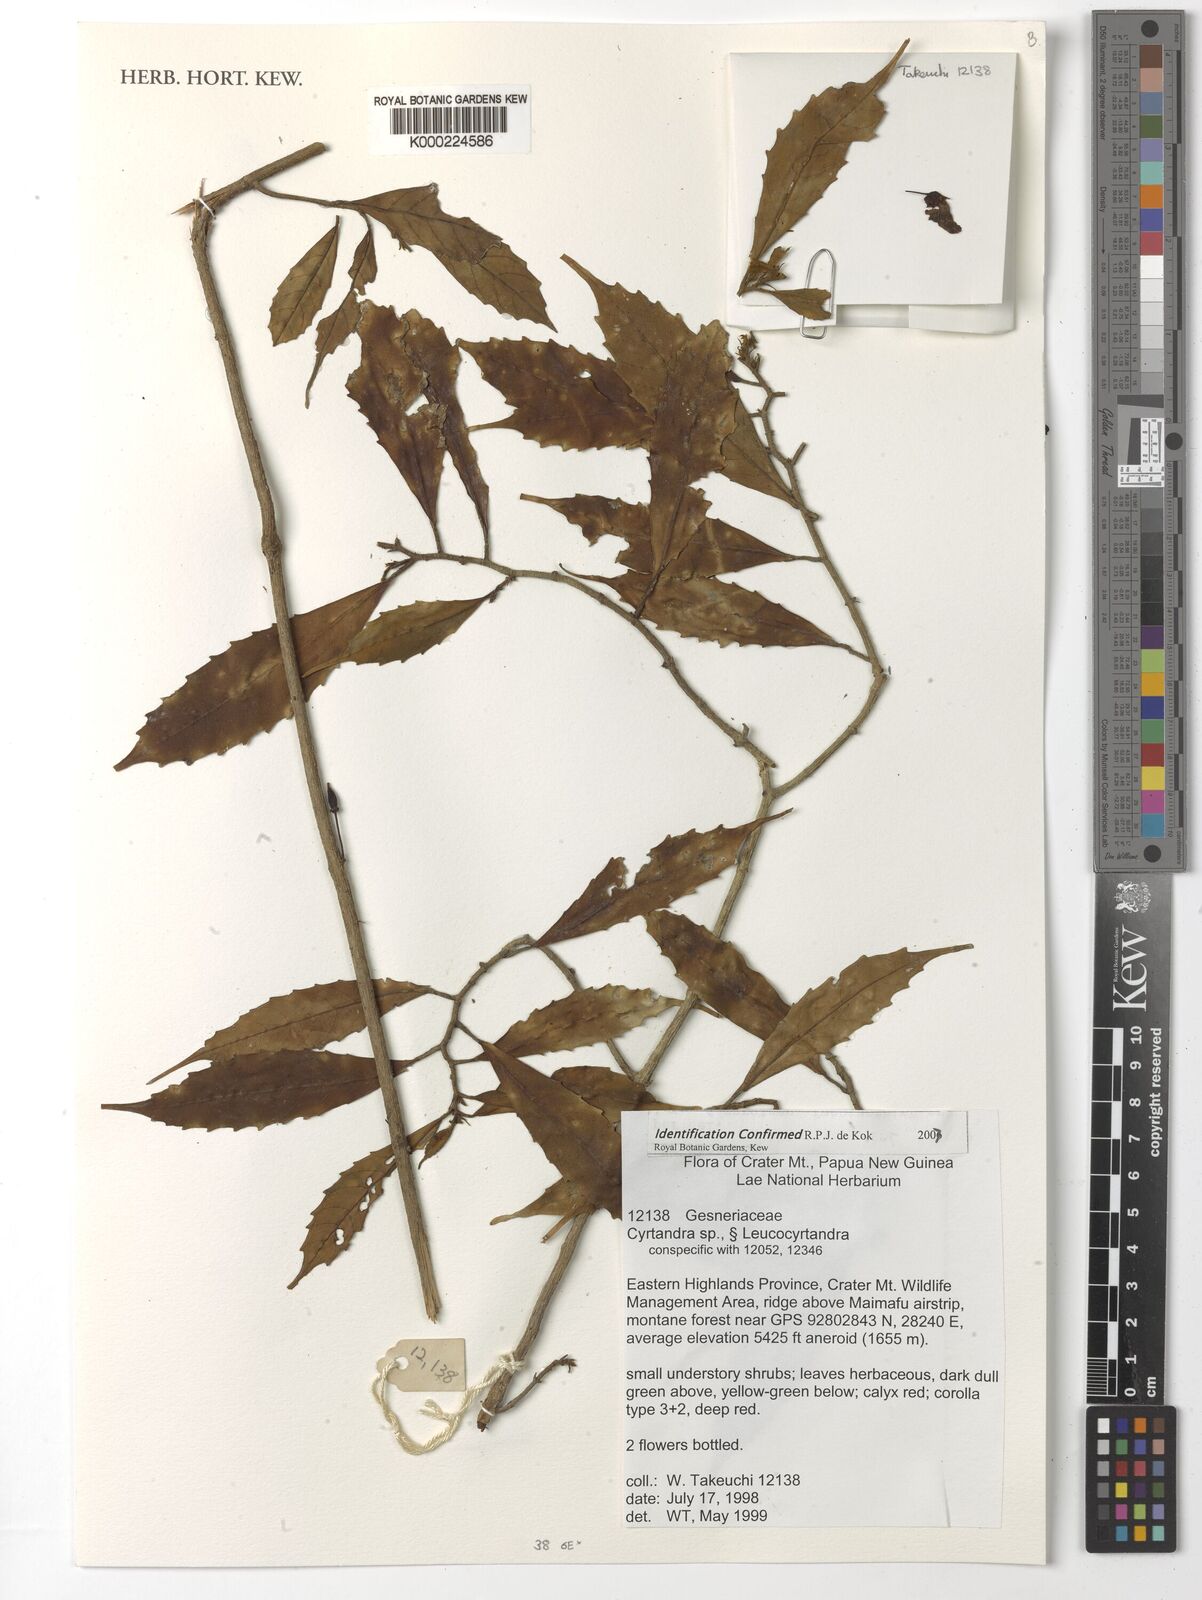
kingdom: Plantae
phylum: Tracheophyta
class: Magnoliopsida
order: Lamiales
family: Gesneriaceae
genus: Cyrtandra
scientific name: Cyrtandra
